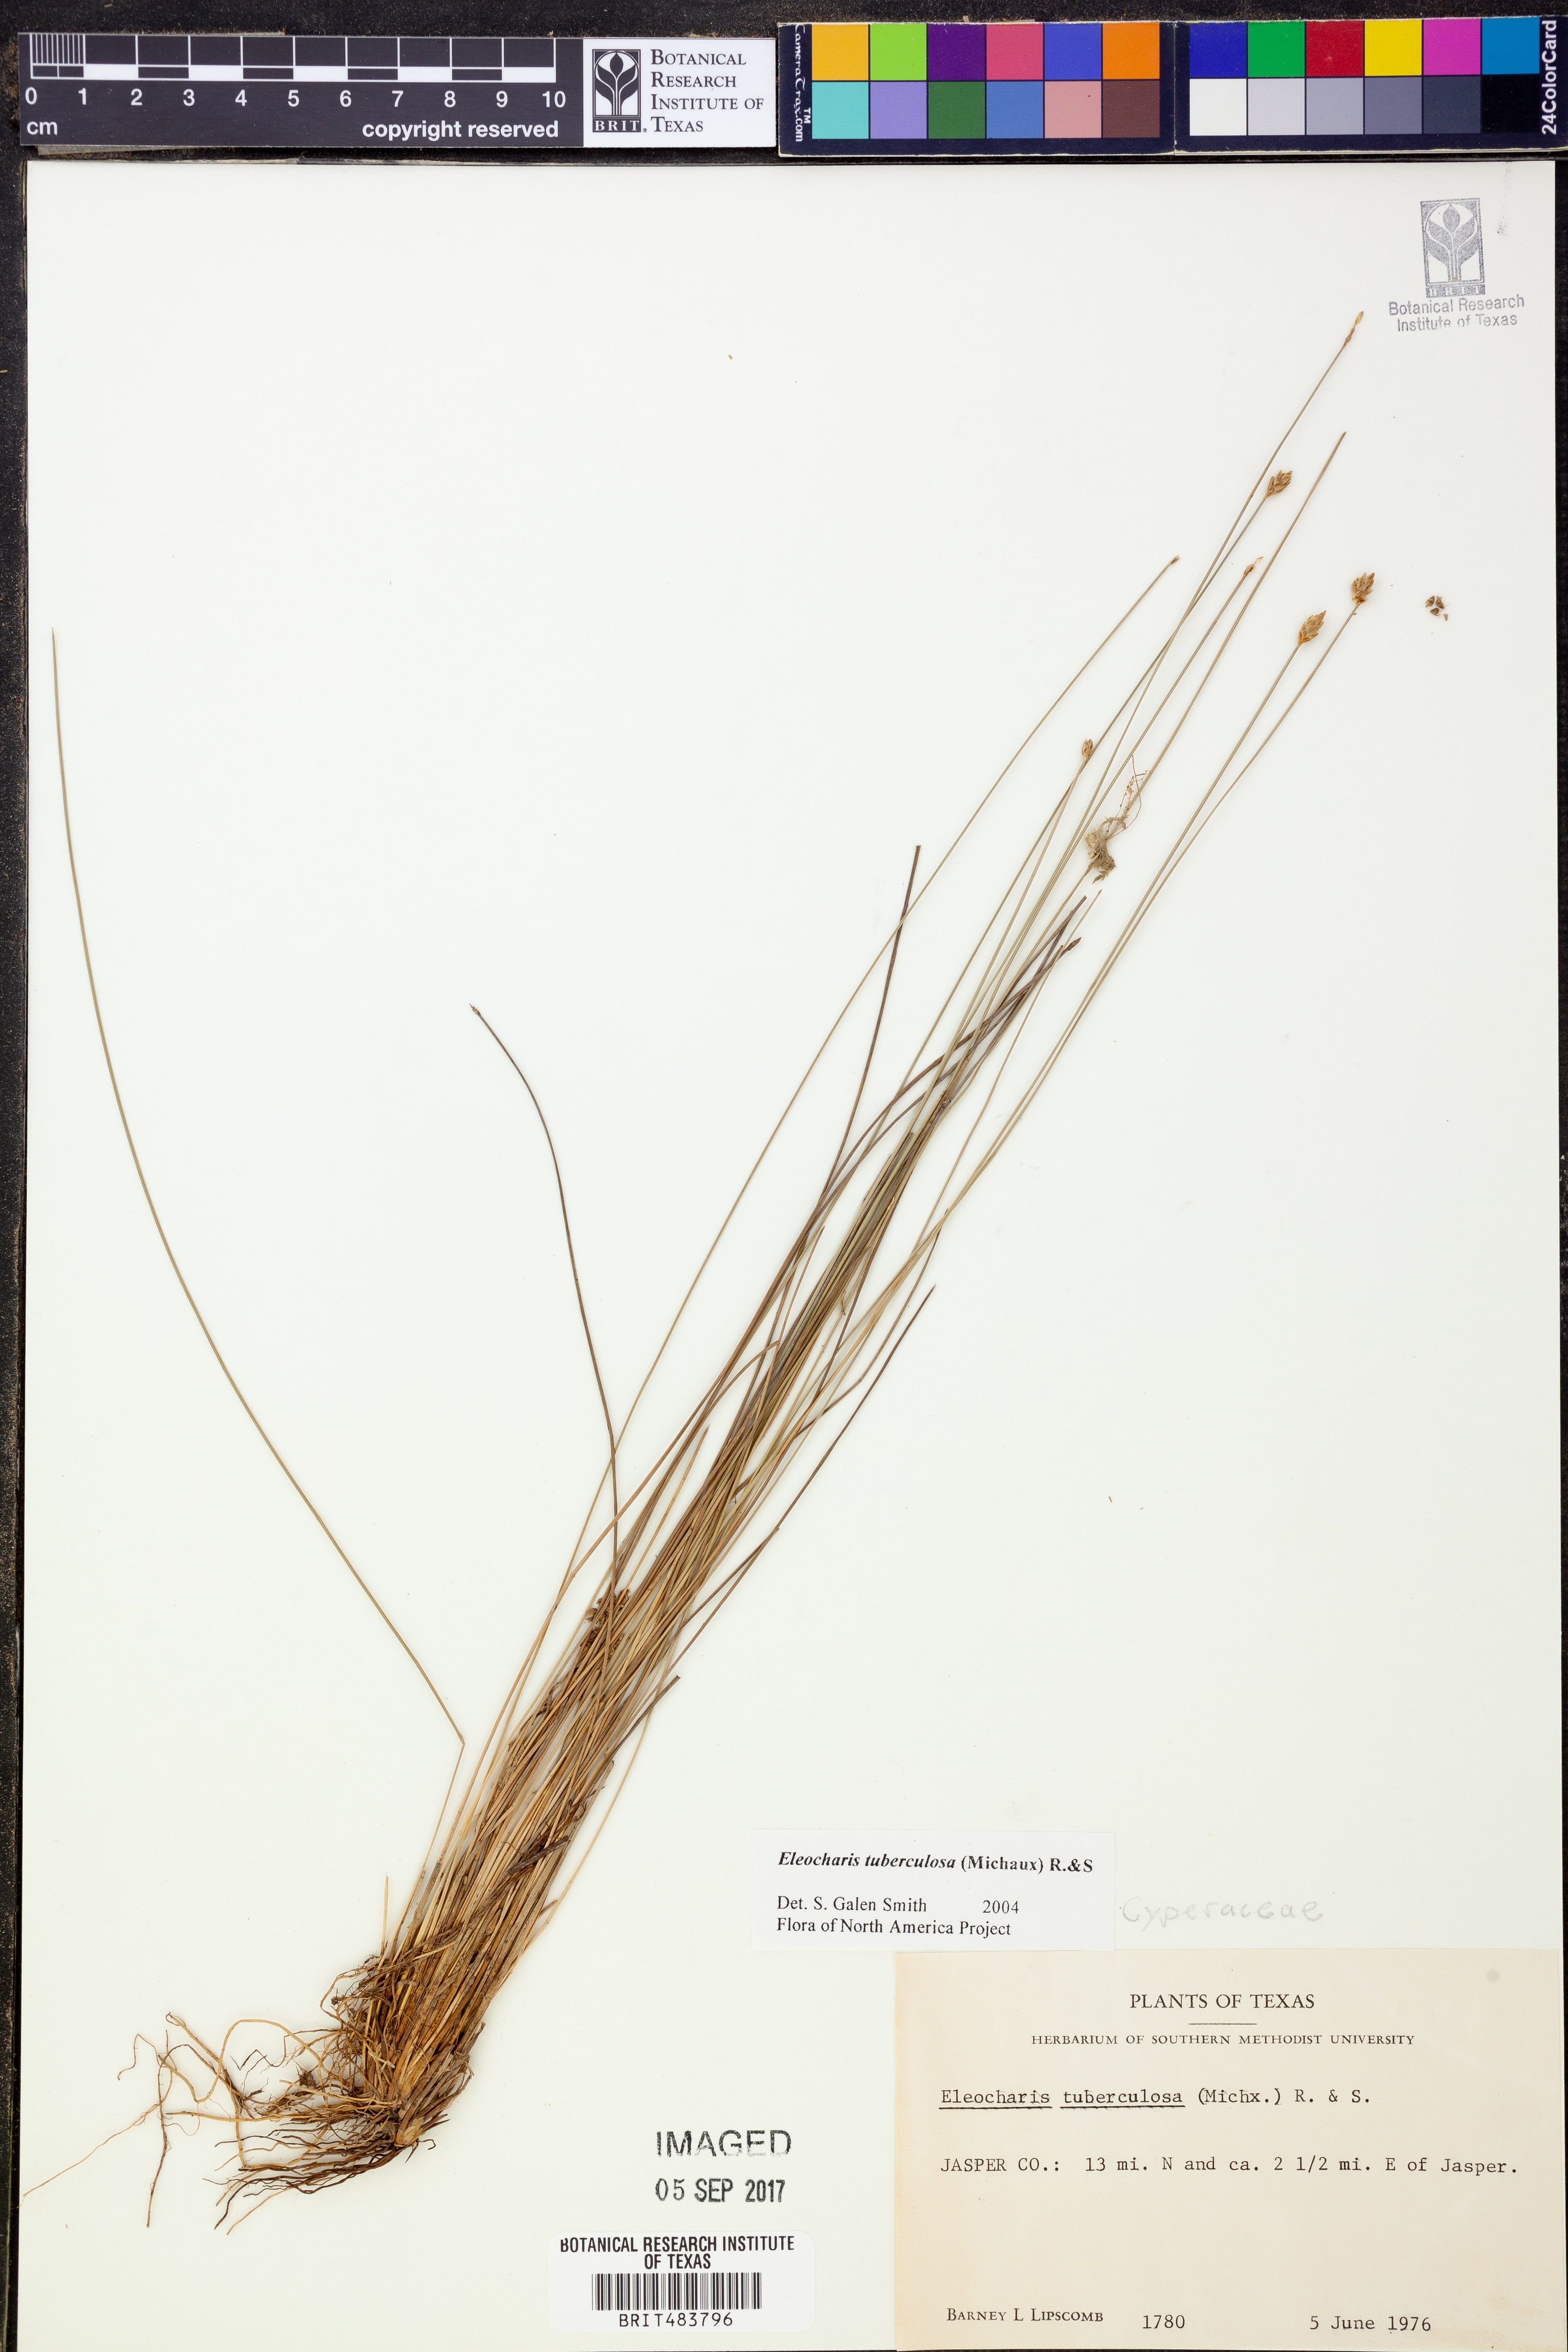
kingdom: Plantae
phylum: Tracheophyta
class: Liliopsida
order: Poales
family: Cyperaceae
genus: Eleocharis
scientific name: Eleocharis tuberculosa
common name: Cone-cup spikerush
